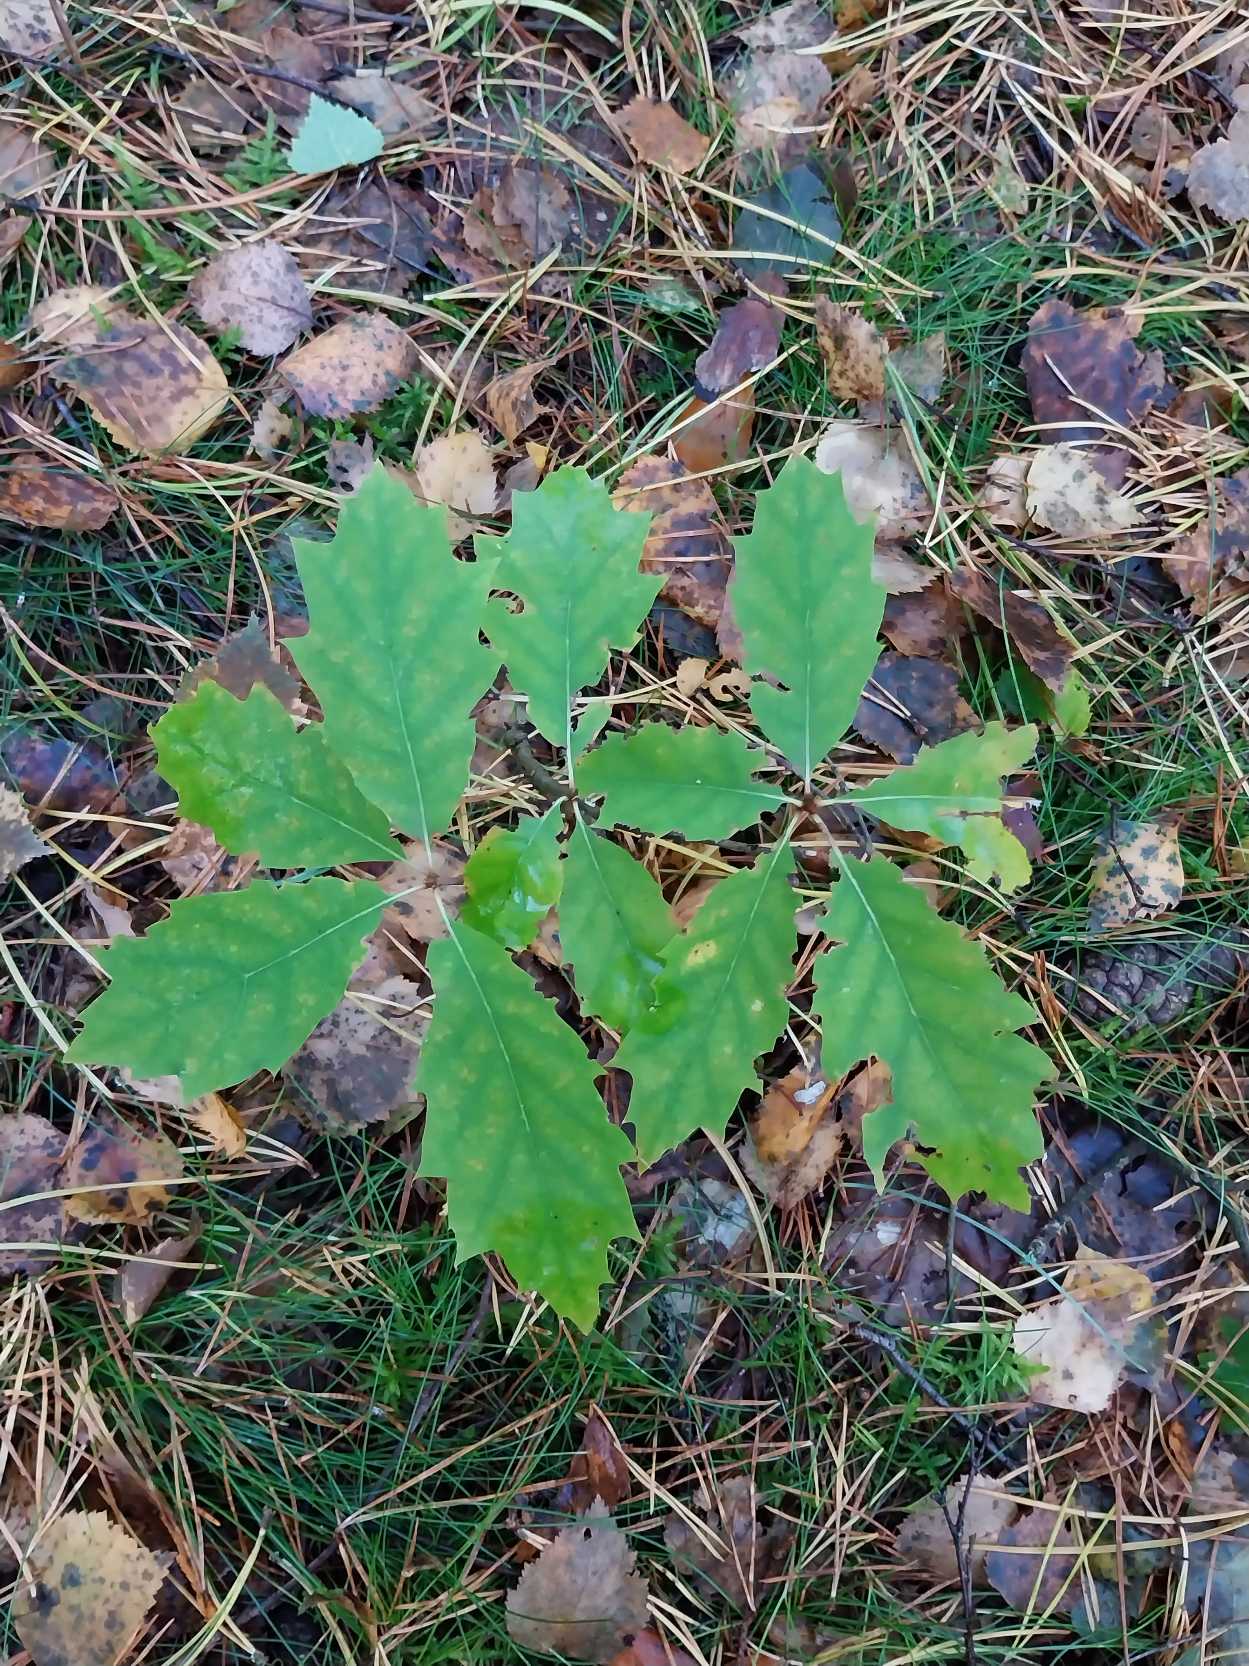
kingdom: Plantae
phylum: Tracheophyta
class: Magnoliopsida
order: Fagales
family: Fagaceae
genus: Quercus
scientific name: Quercus rubra
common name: Rød-eg
